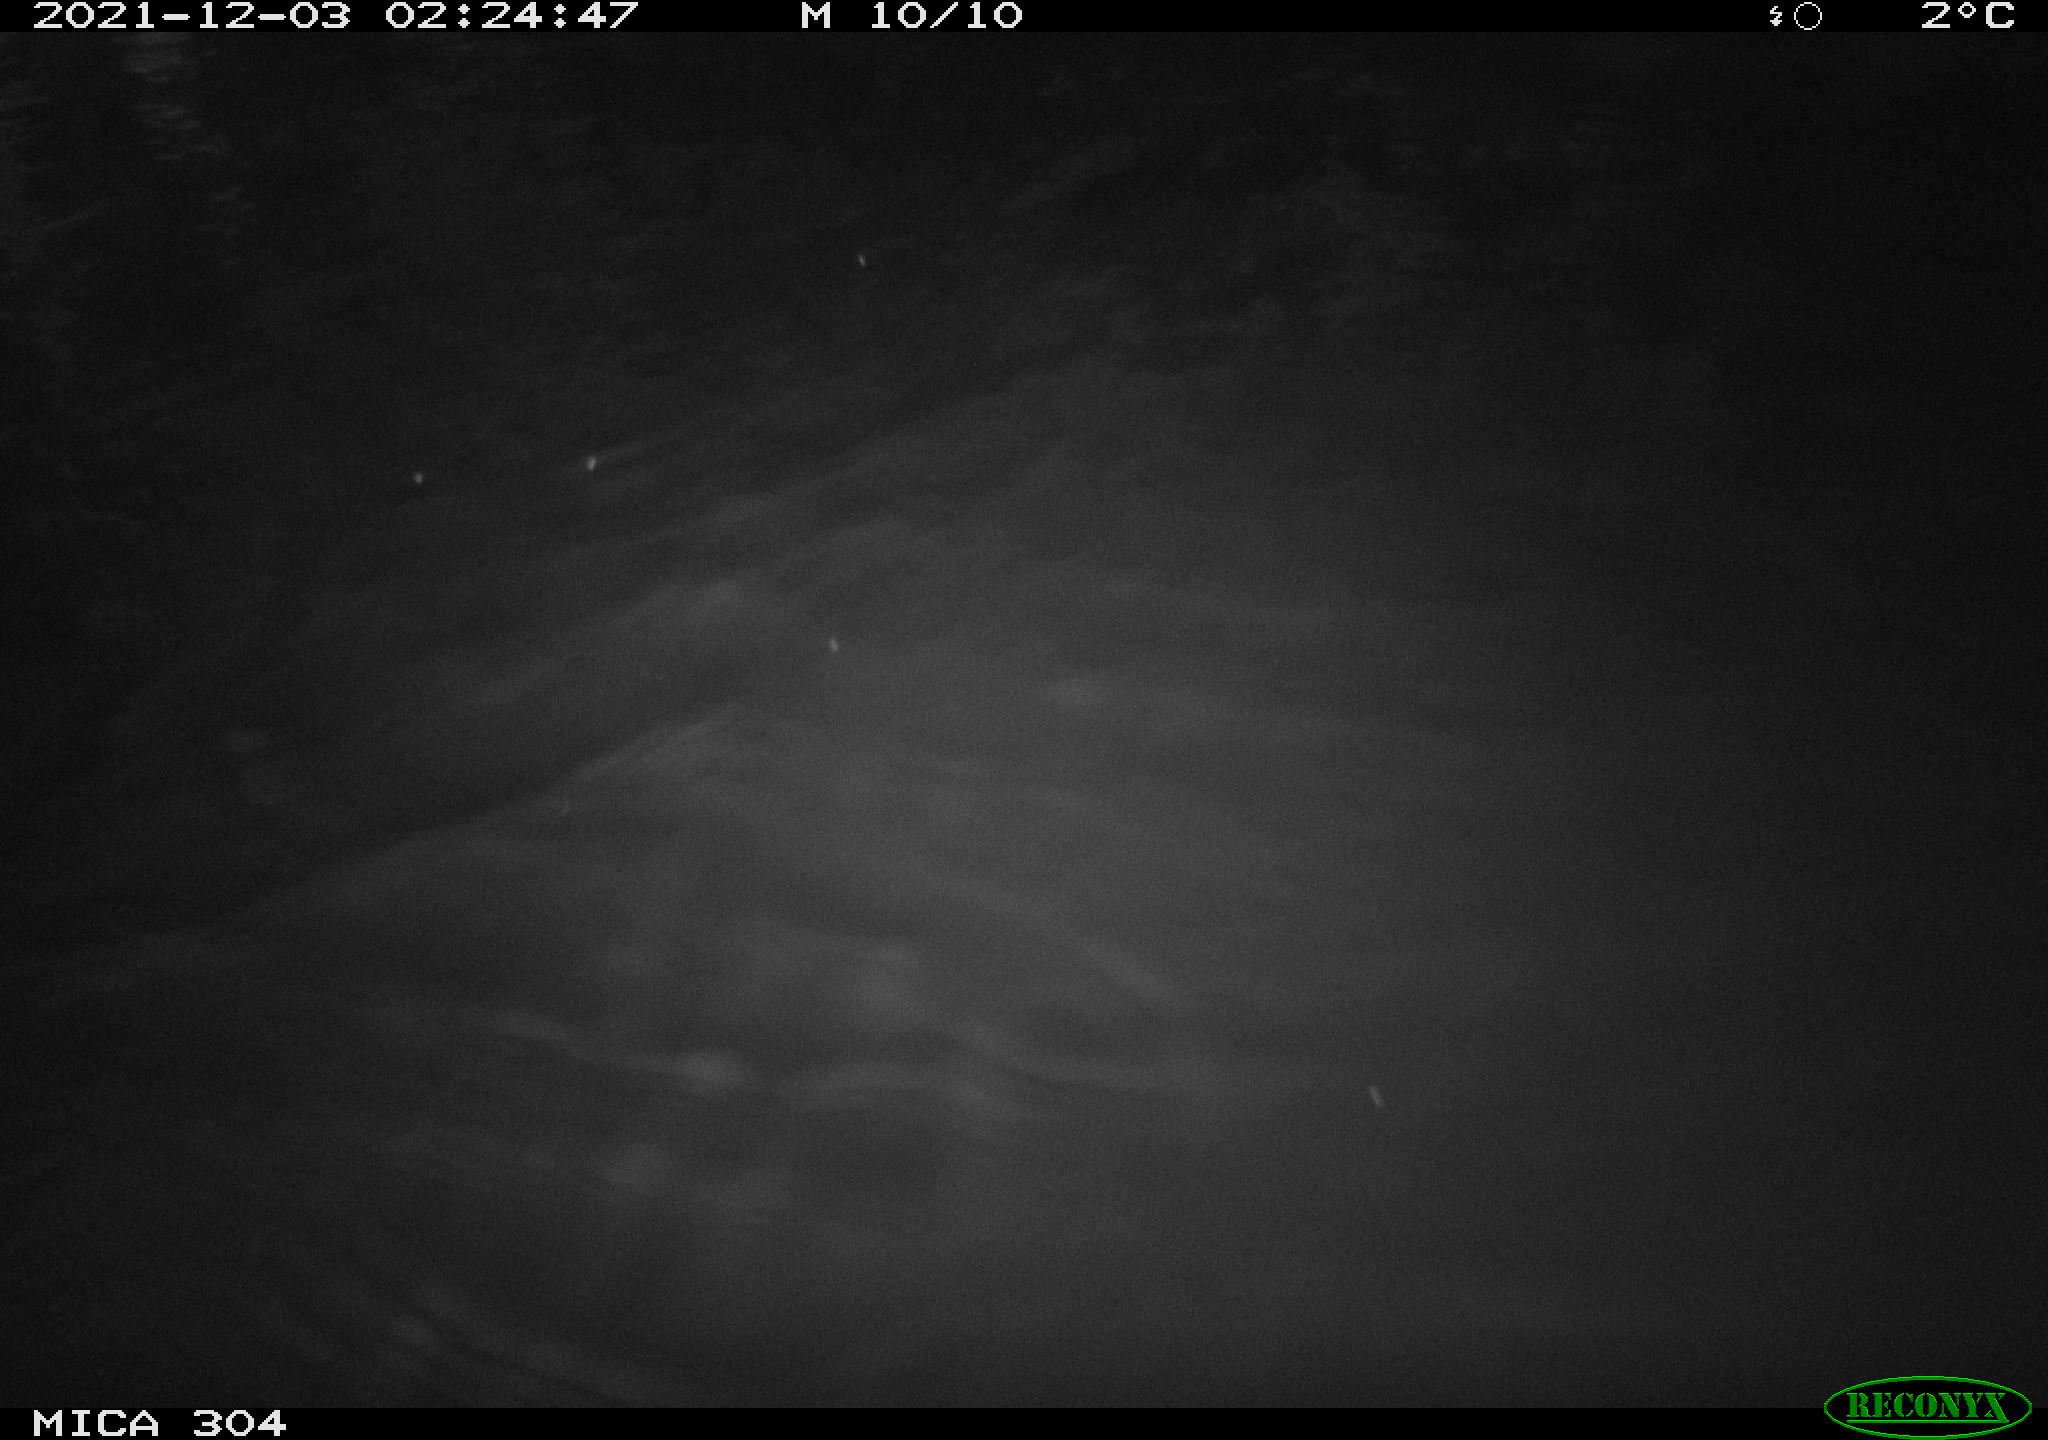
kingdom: Animalia
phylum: Chordata
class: Mammalia
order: Rodentia
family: Cricetidae
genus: Ondatra
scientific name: Ondatra zibethicus
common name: Muskrat
